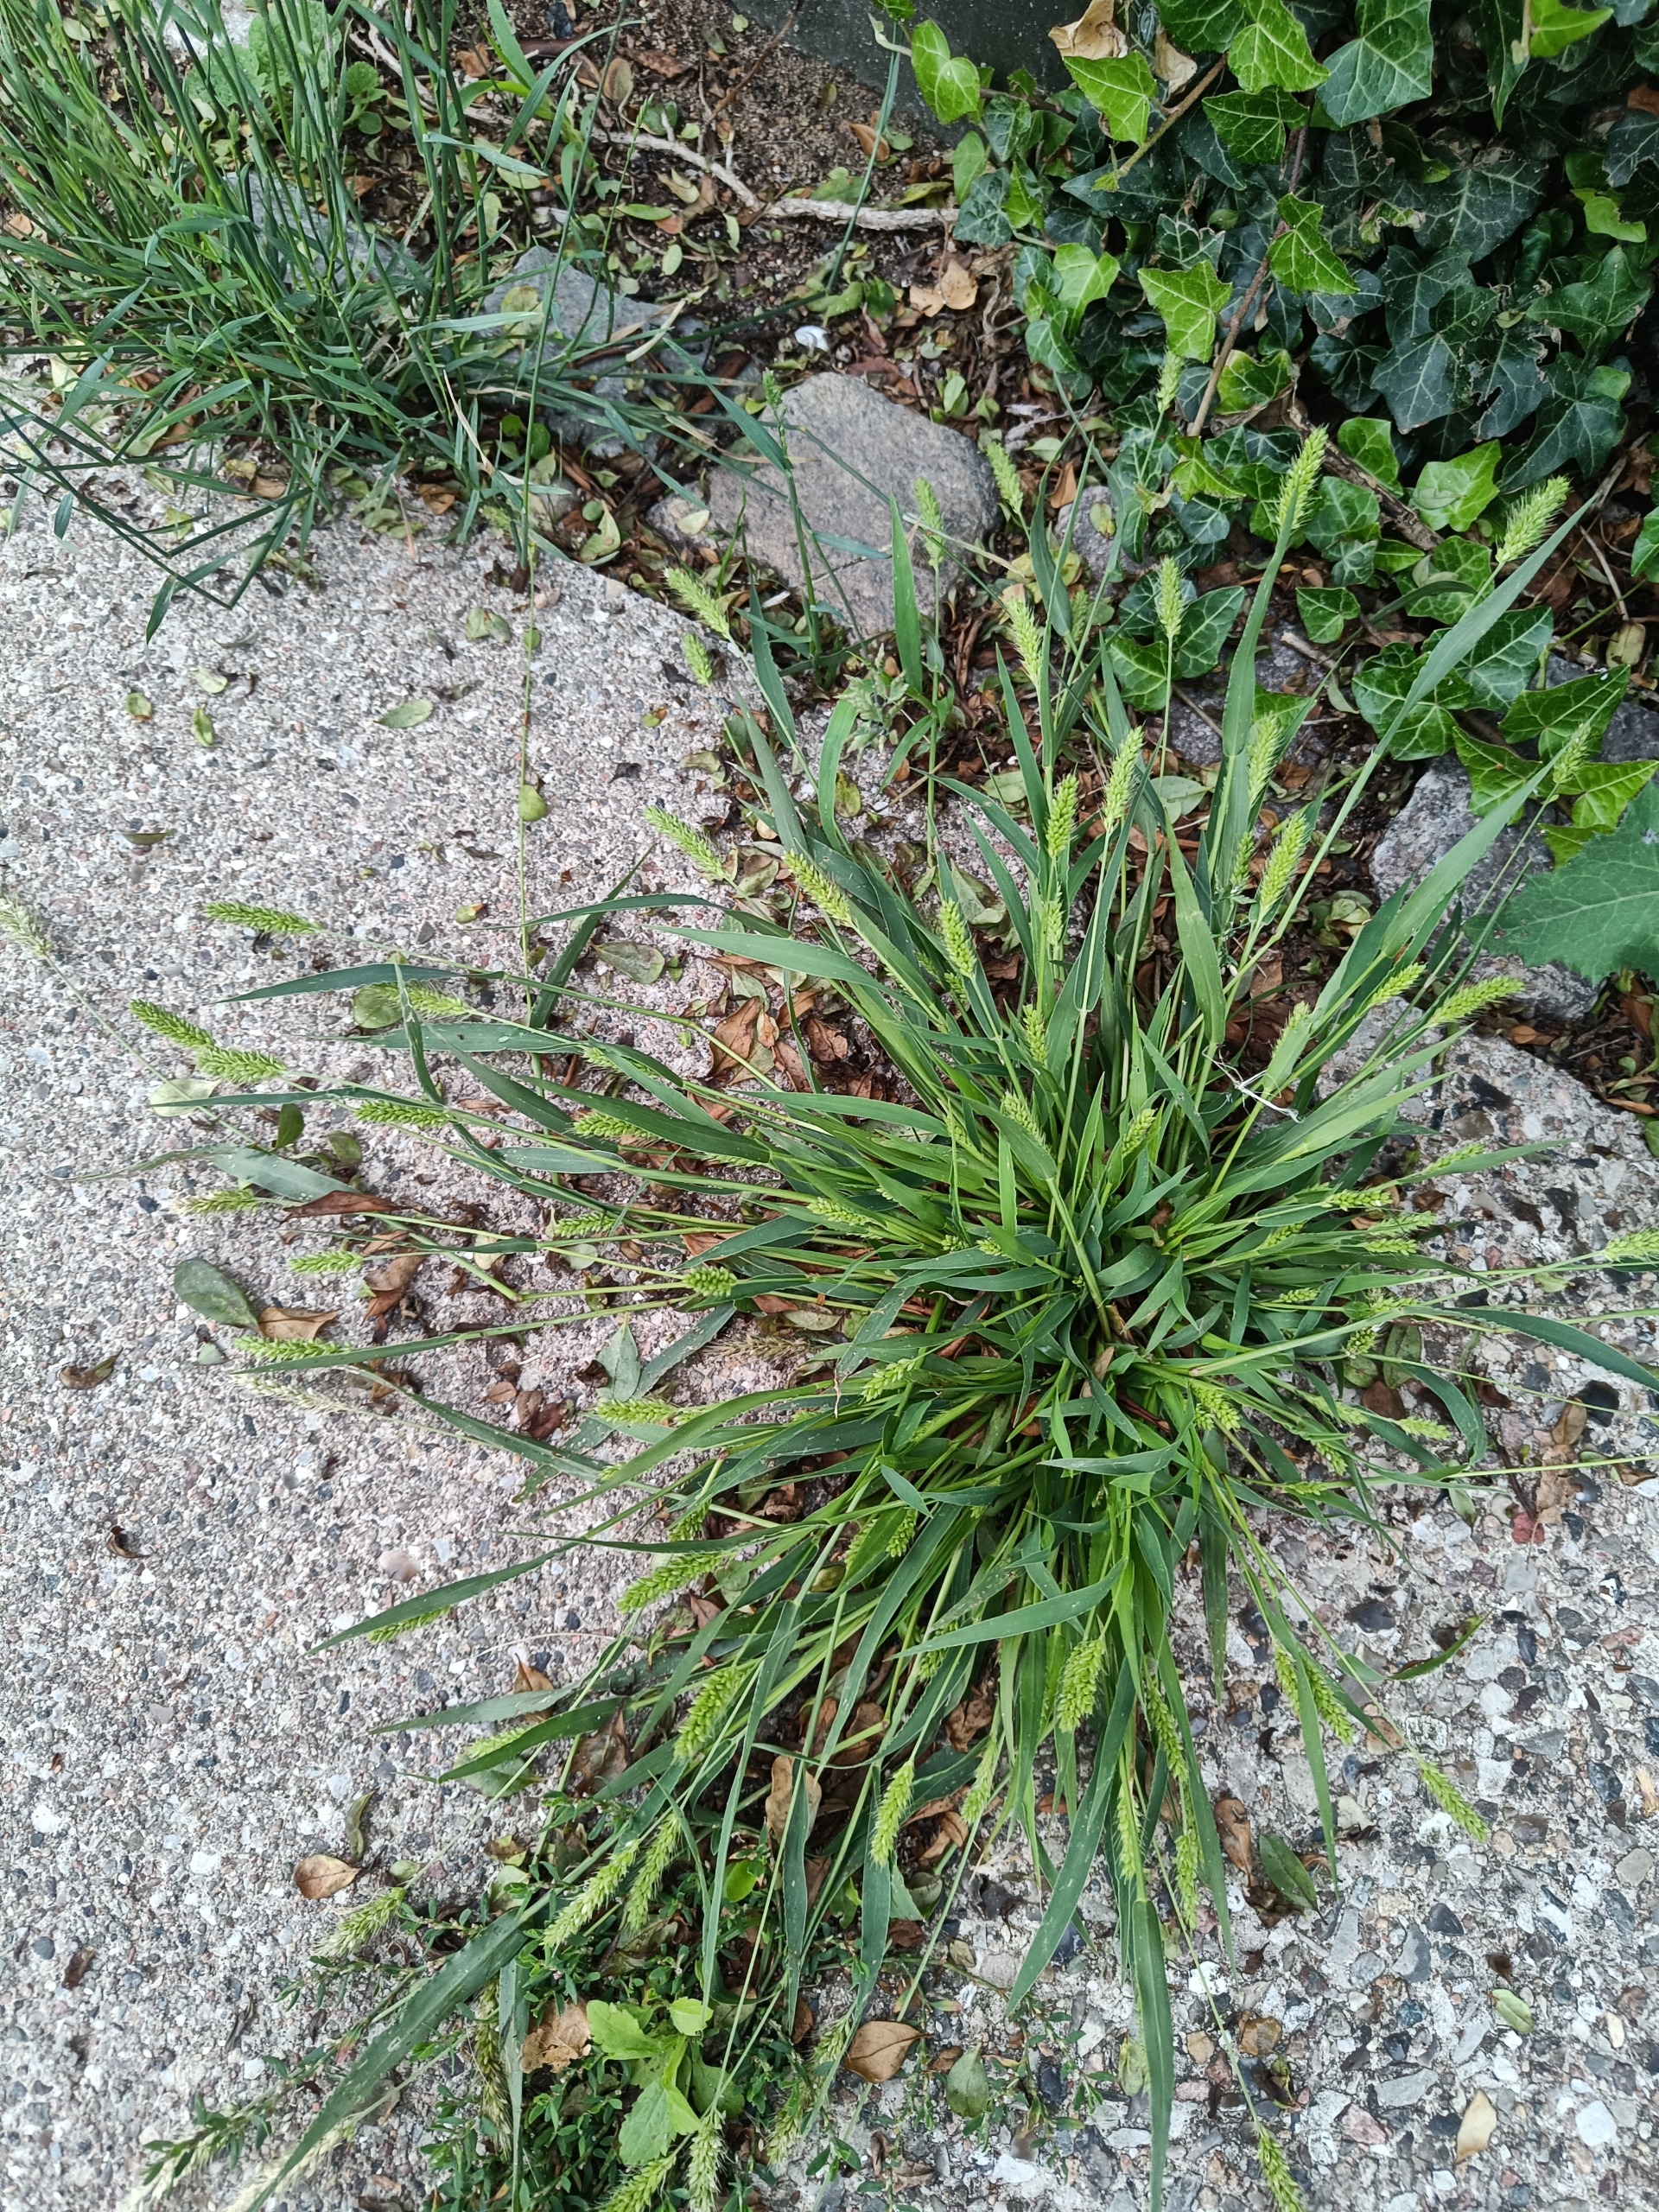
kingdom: Plantae
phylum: Tracheophyta
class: Liliopsida
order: Poales
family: Poaceae
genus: Setaria
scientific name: Setaria viridis
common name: Grøn skærmaks
